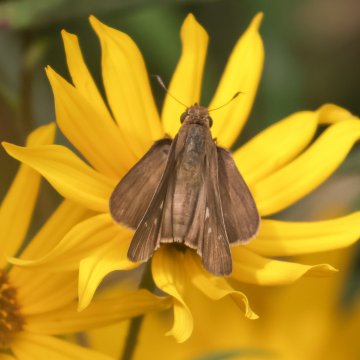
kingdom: Animalia
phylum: Arthropoda
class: Insecta
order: Lepidoptera
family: Hesperiidae
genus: Panoquina
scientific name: Panoquina ocola
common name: Ocola Skipper
